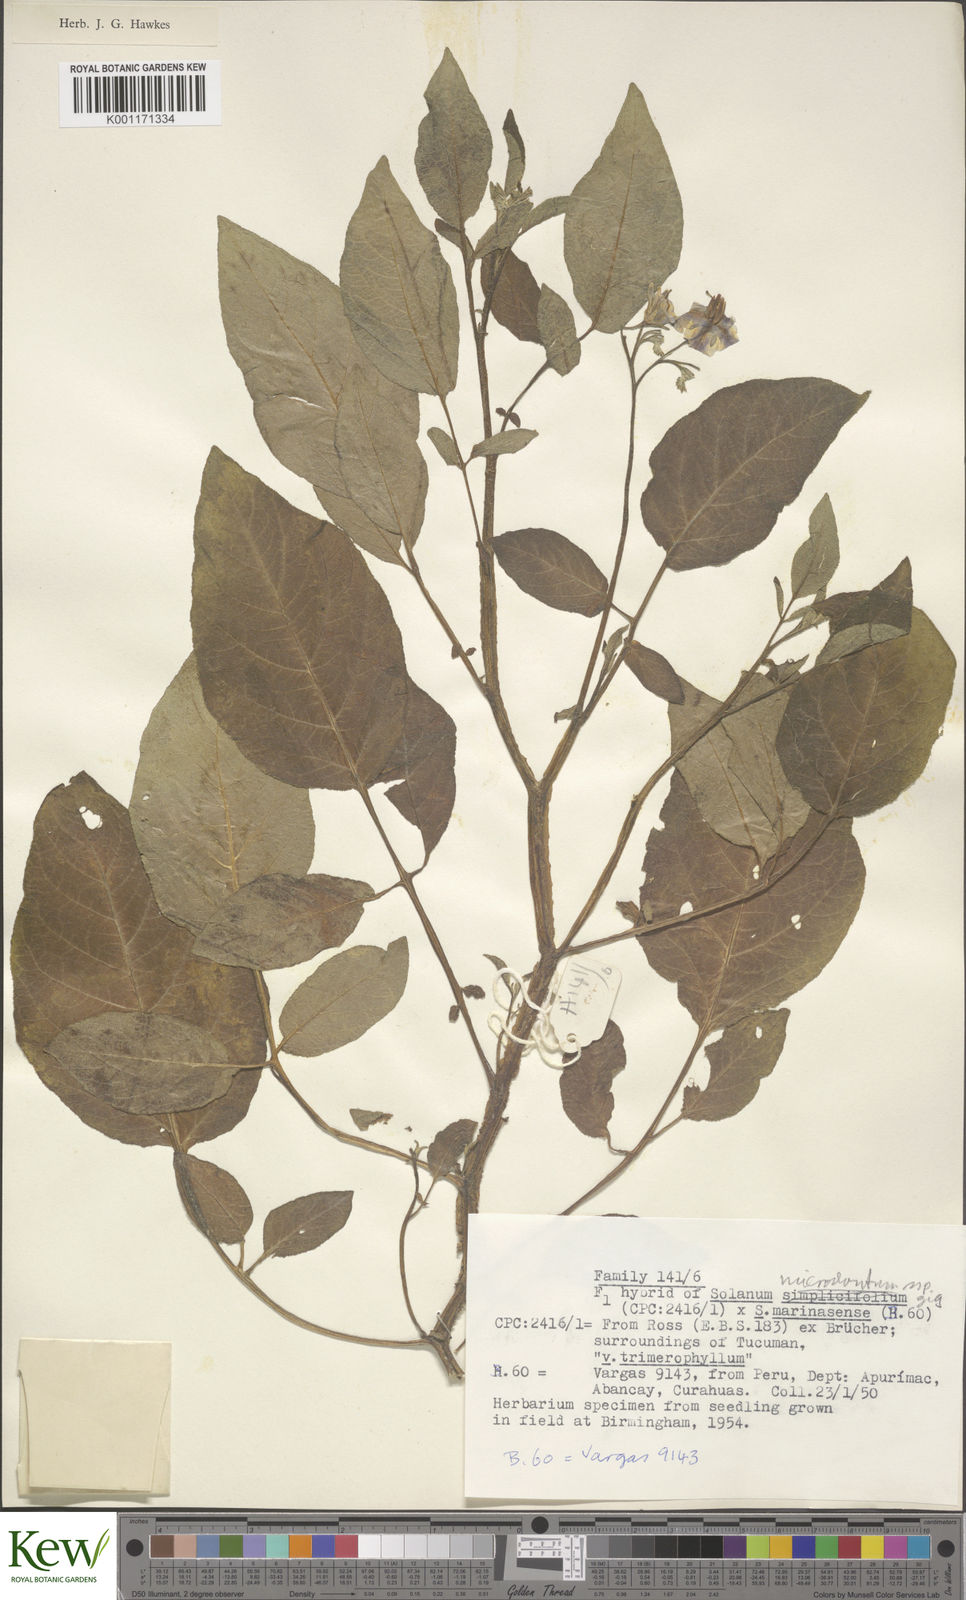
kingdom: Plantae
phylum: Tracheophyta
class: Magnoliopsida
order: Solanales
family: Solanaceae
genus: Solanum
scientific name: Solanum microdontum
